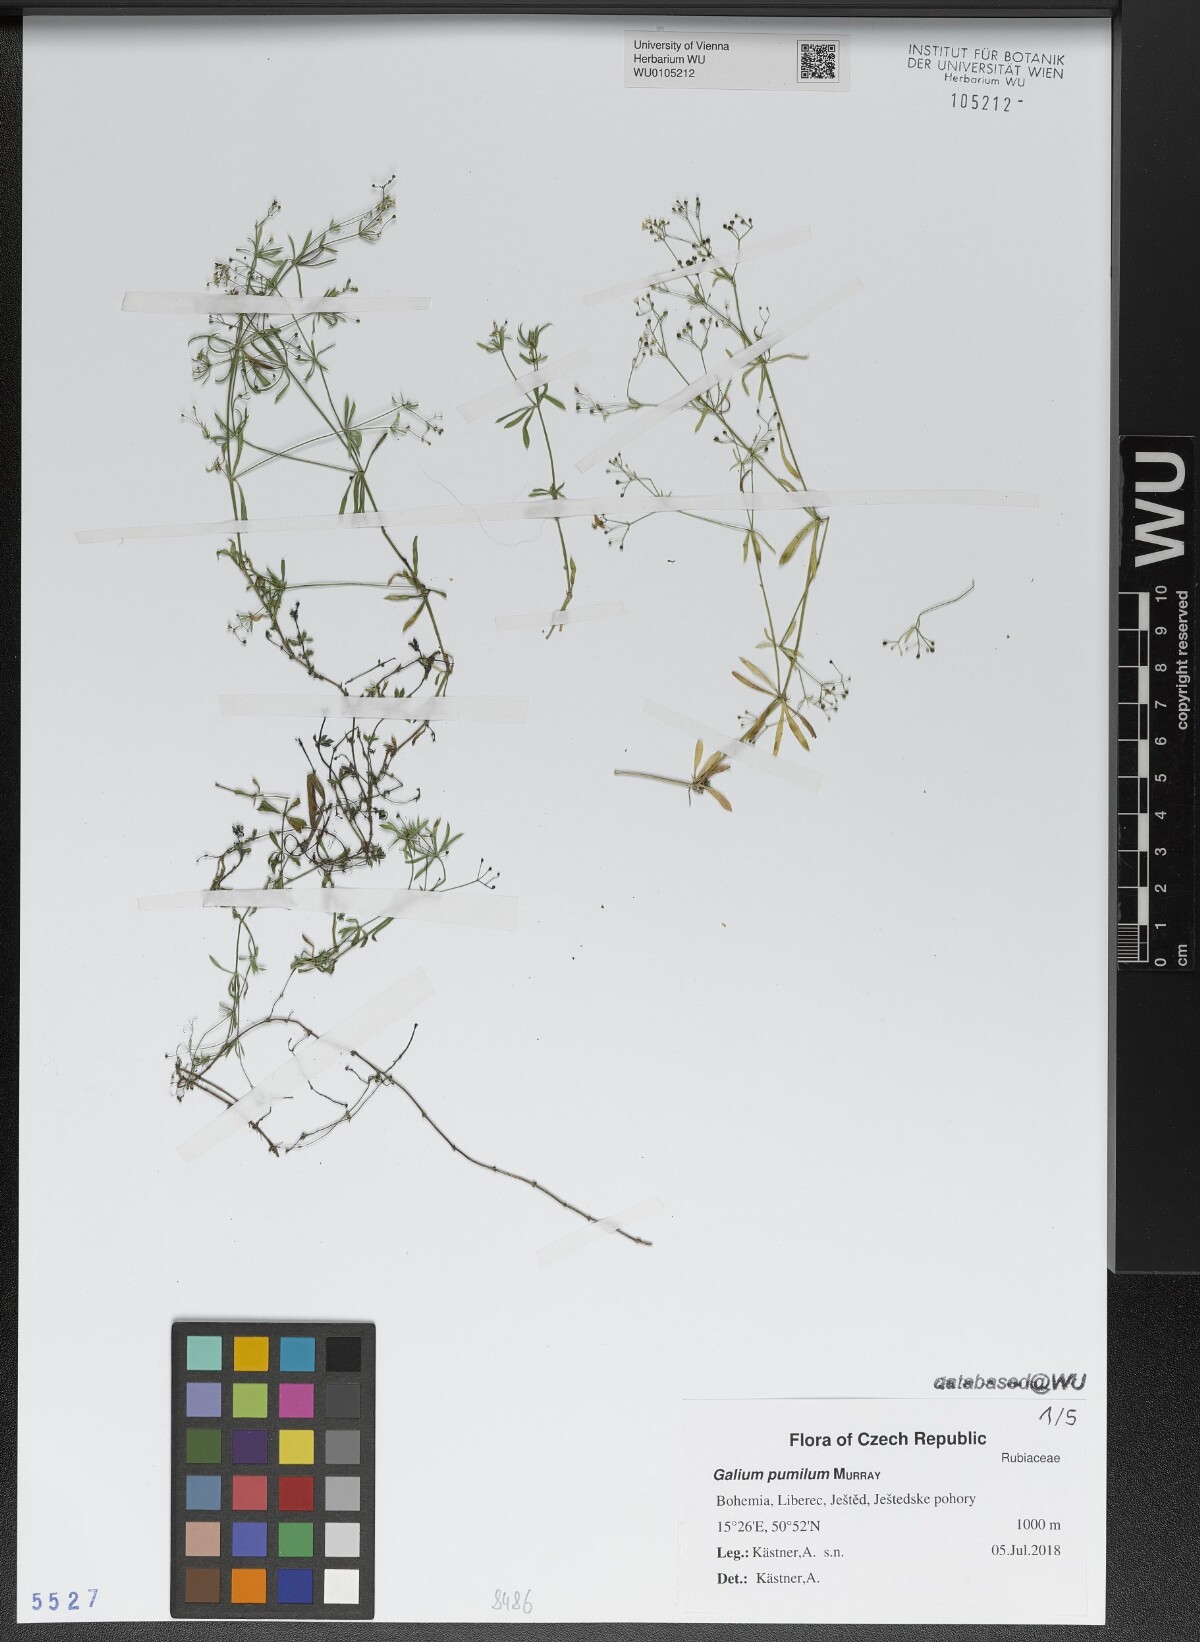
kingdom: Plantae
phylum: Tracheophyta
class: Magnoliopsida
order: Gentianales
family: Rubiaceae
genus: Galium
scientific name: Galium pumilum
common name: Slender bedstraw
